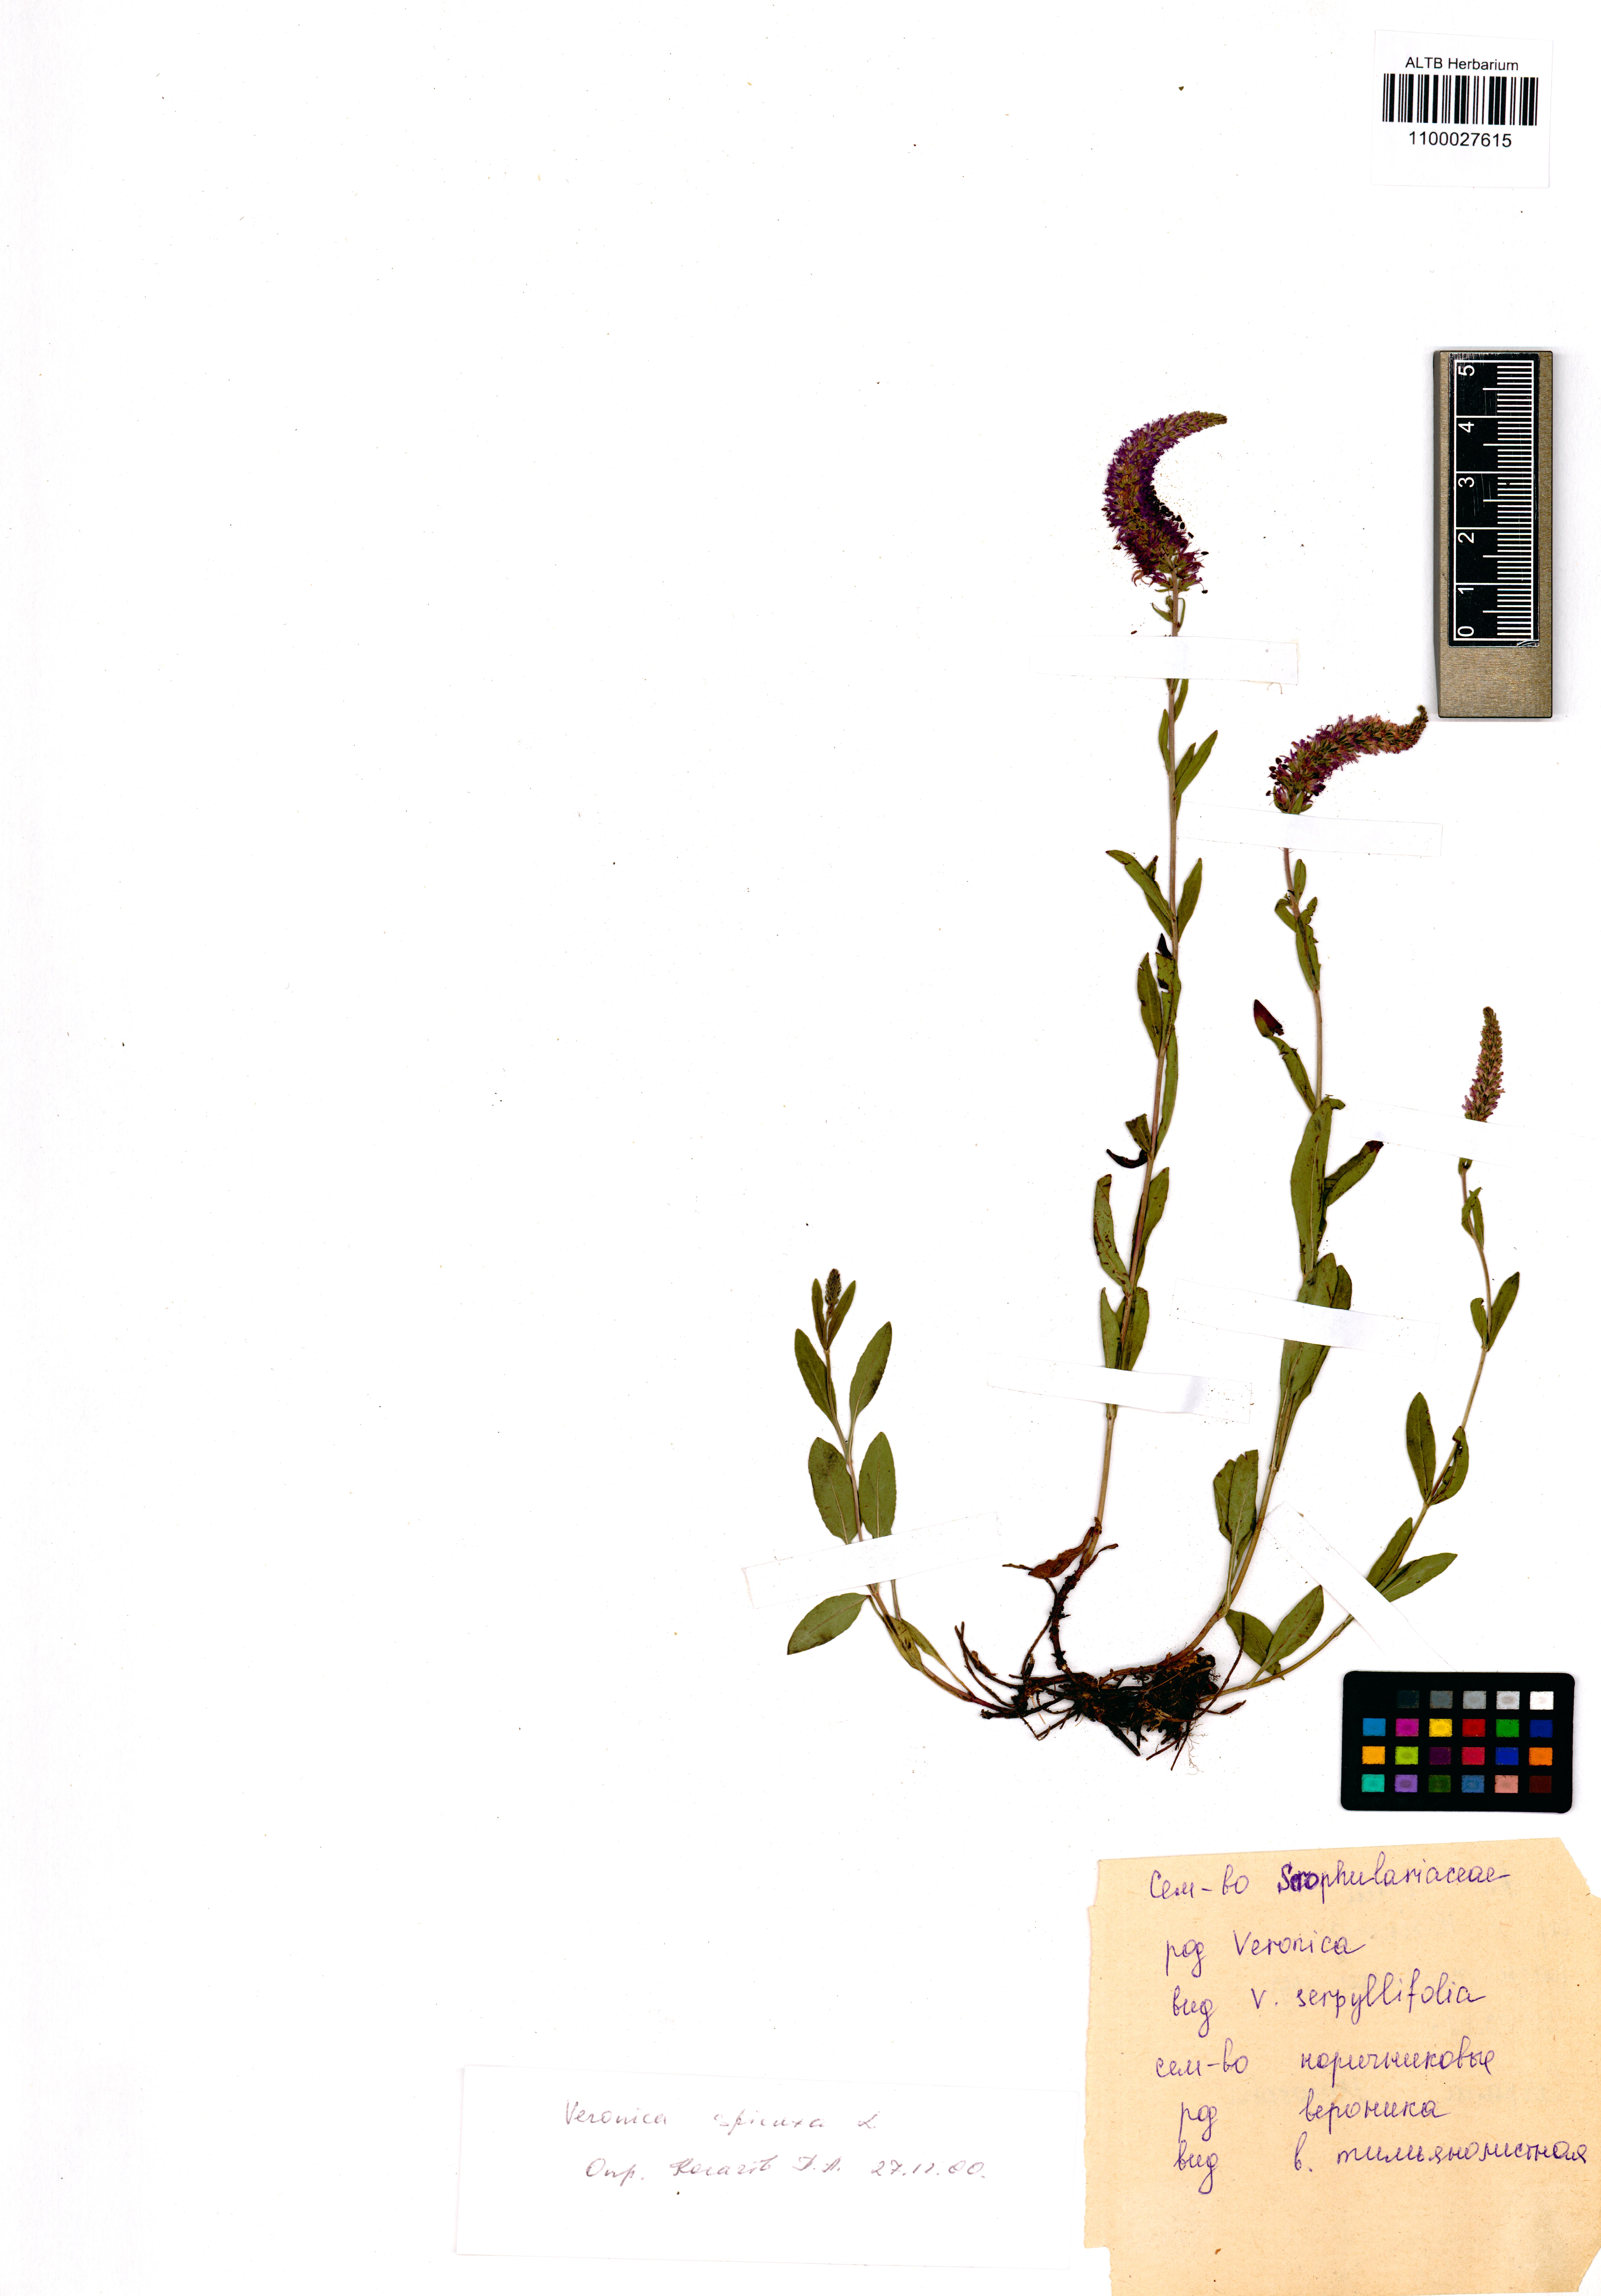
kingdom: Plantae
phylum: Tracheophyta
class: Magnoliopsida
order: Lamiales
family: Plantaginaceae
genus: Veronica
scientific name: Veronica spicata
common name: Spiked speedwell
